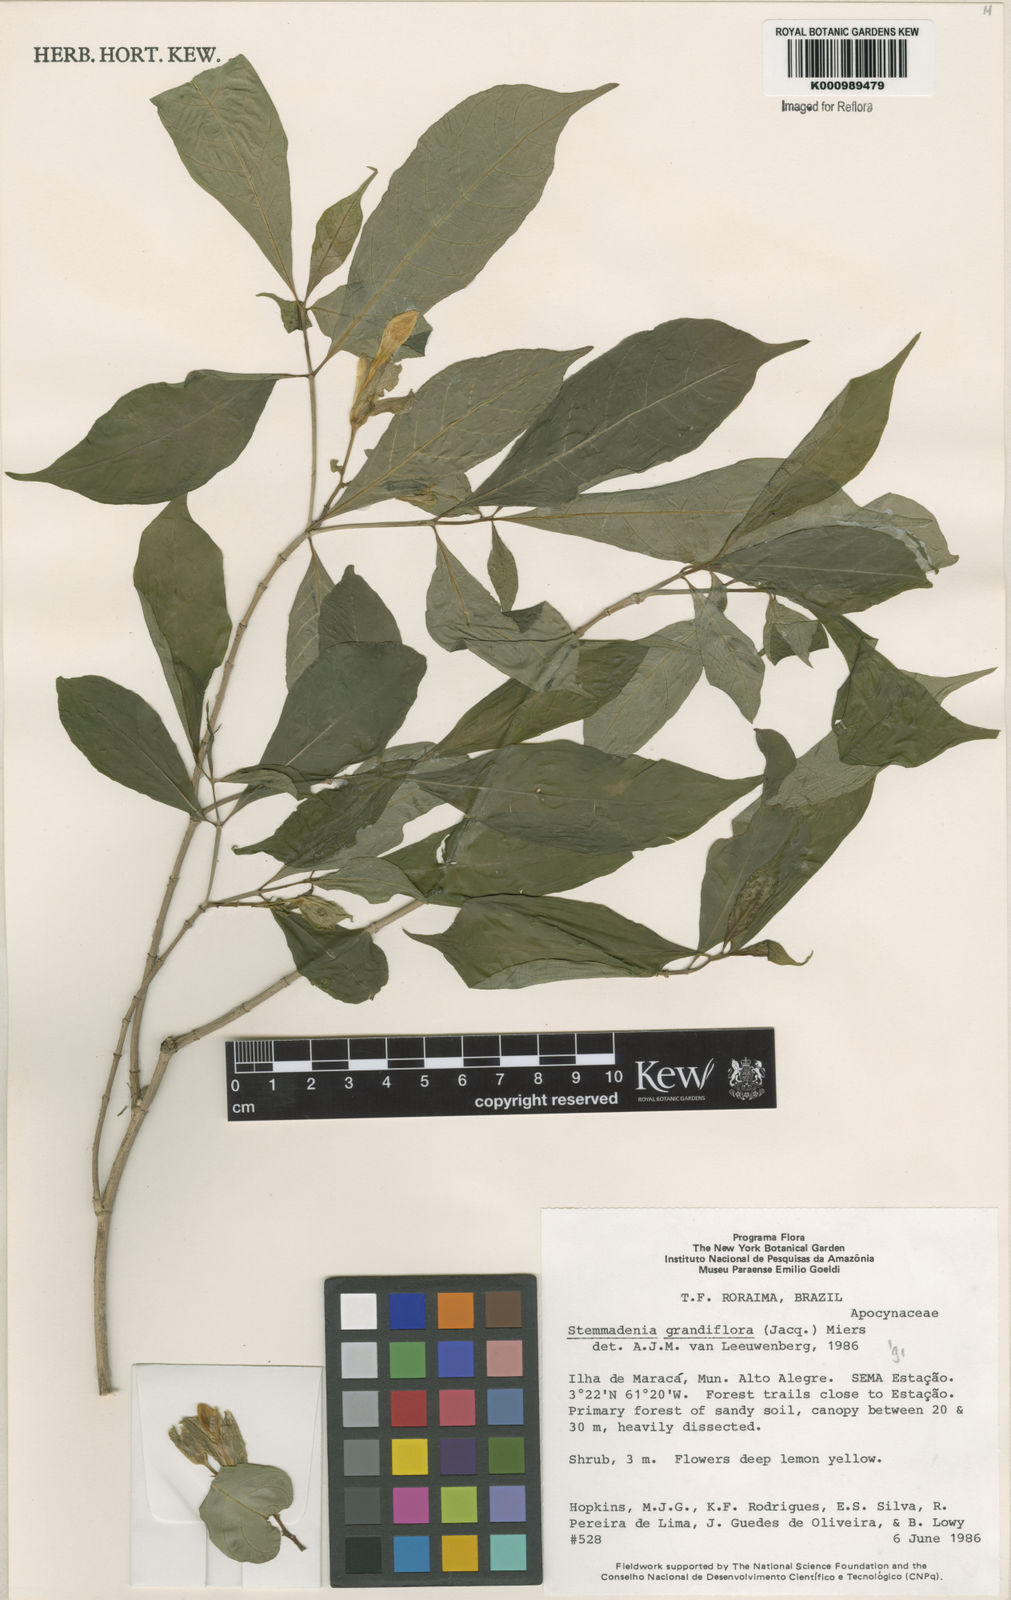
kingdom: Plantae
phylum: Tracheophyta
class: Magnoliopsida
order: Gentianales
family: Apocynaceae
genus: Tabernaemontana
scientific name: Tabernaemontana grandiflora
